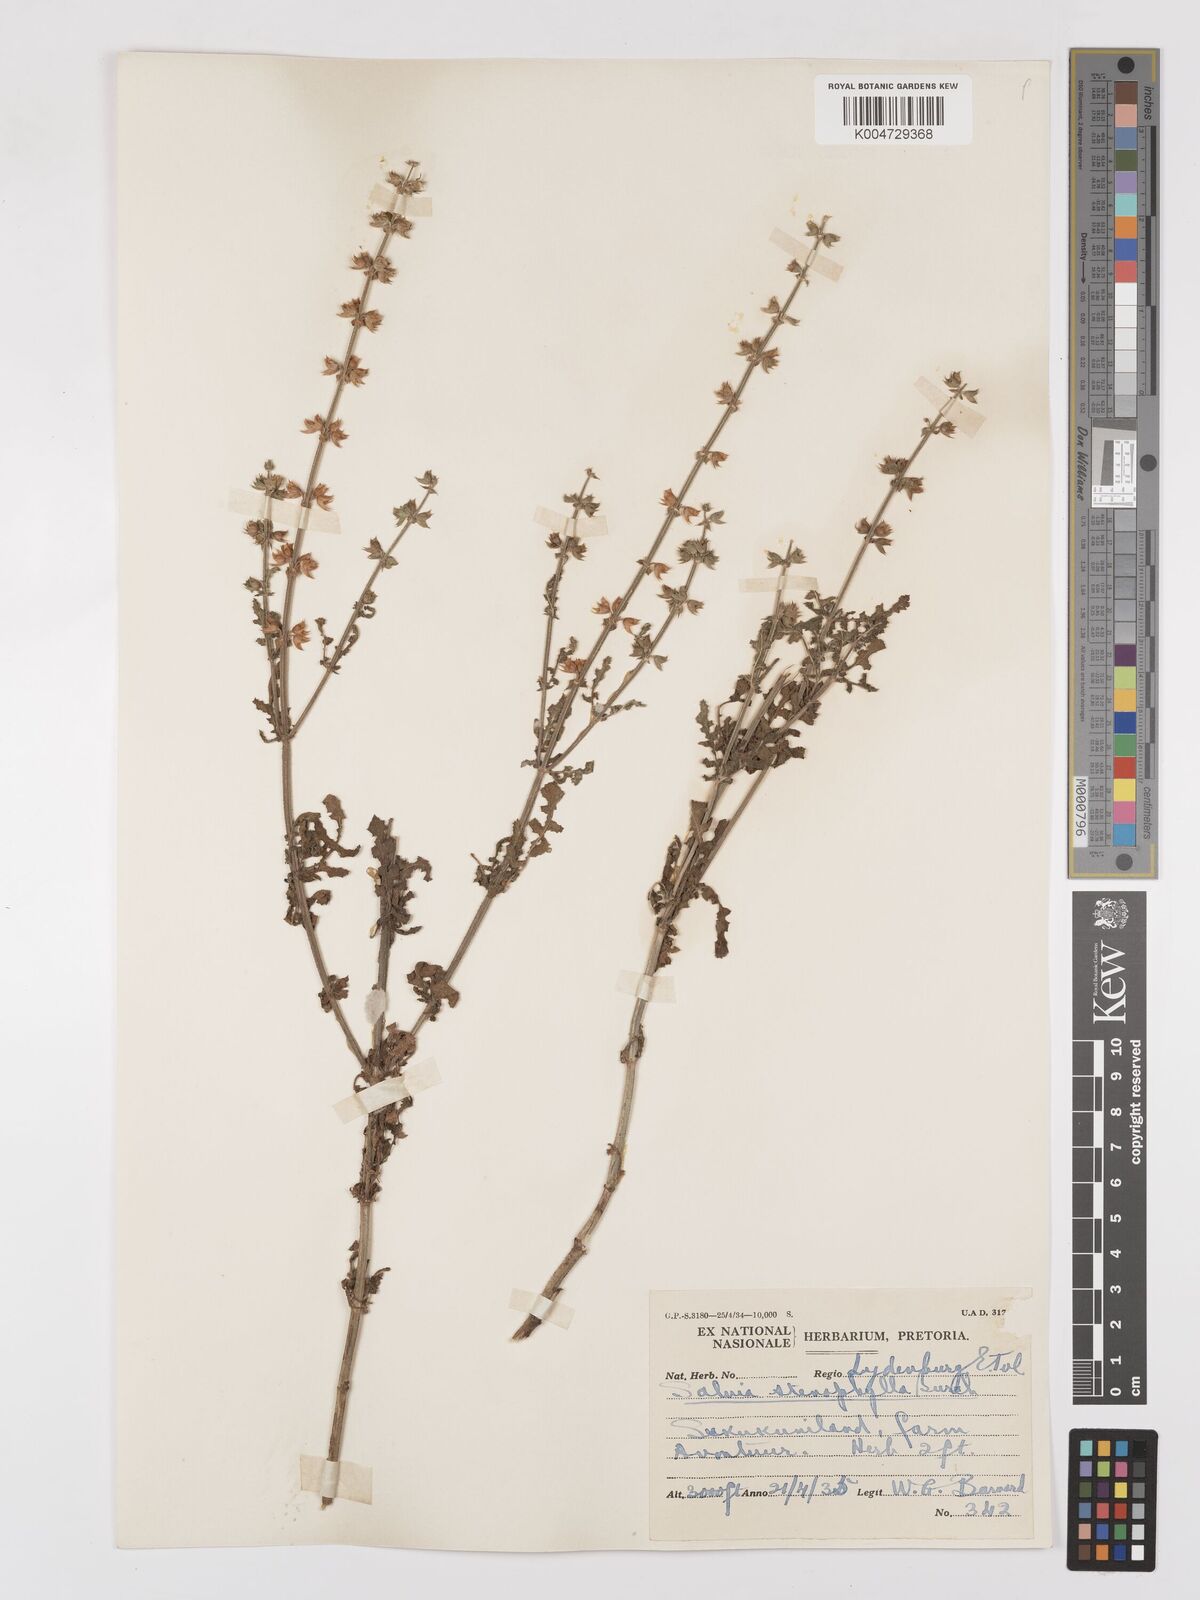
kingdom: Plantae
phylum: Tracheophyta
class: Magnoliopsida
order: Lamiales
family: Lamiaceae
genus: Salvia
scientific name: Salvia stenophylla
